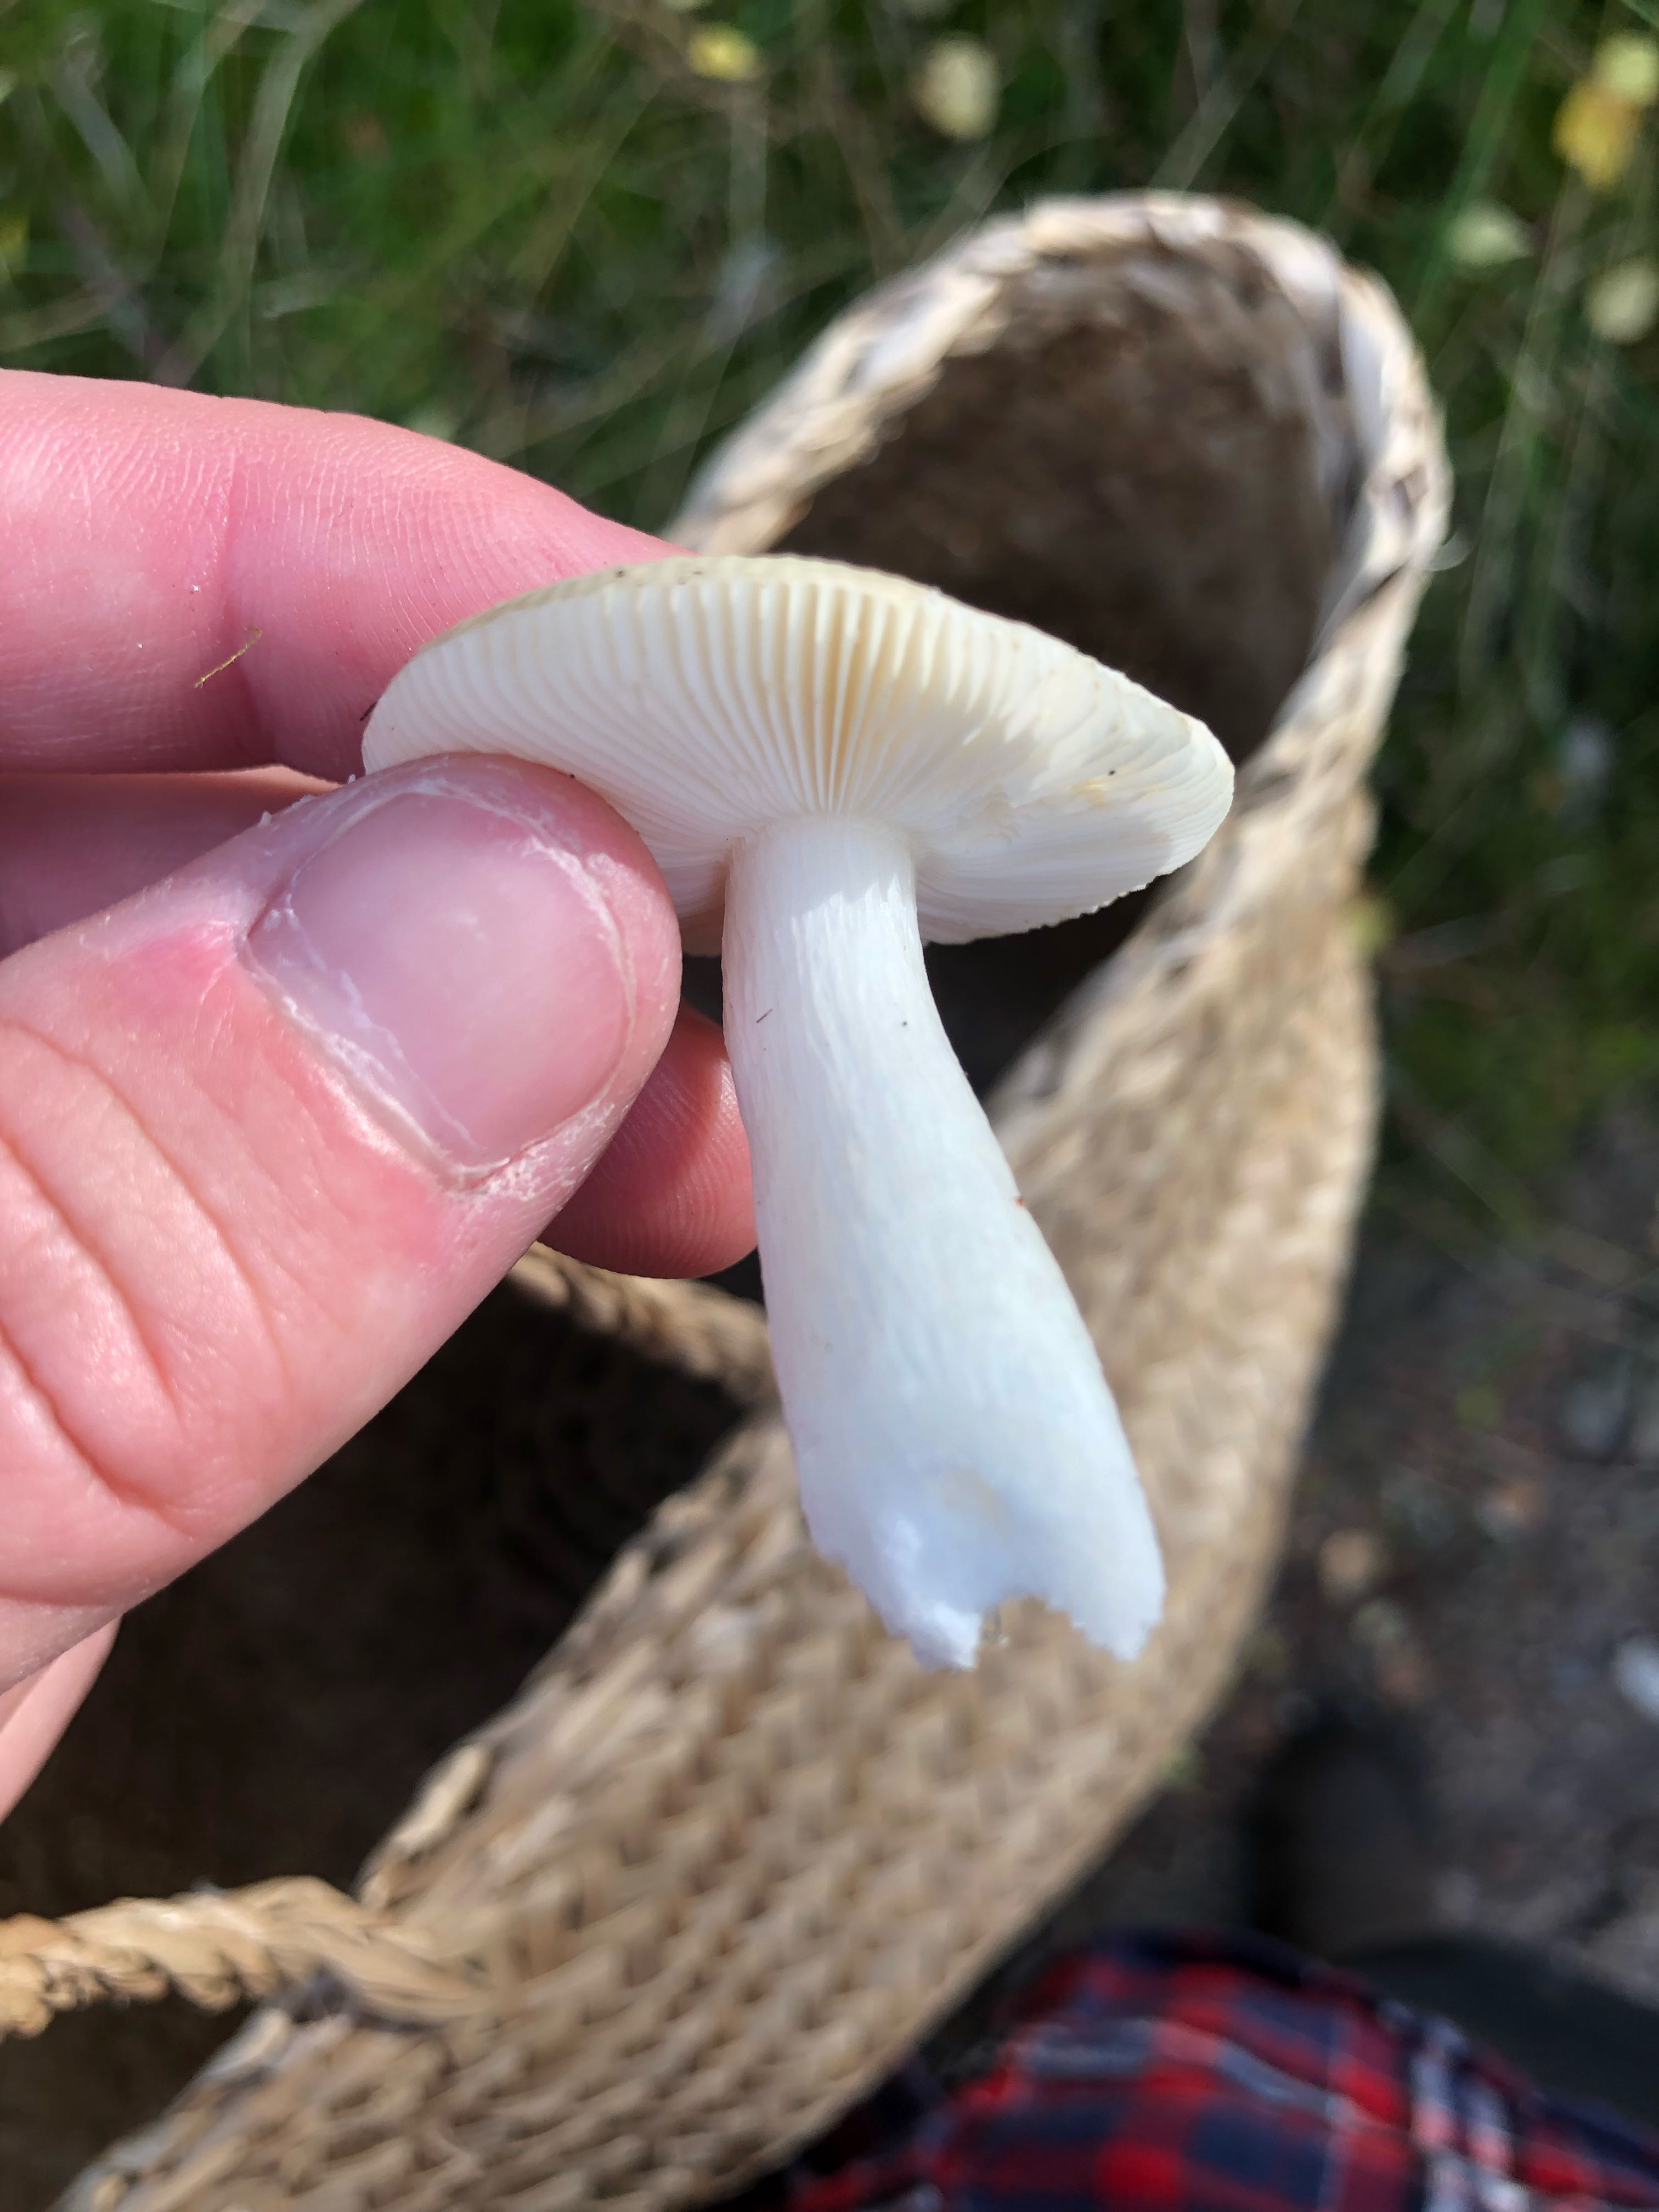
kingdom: Fungi
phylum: Basidiomycota
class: Agaricomycetes
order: Russulales
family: Russulaceae
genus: Russula
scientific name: Russula
